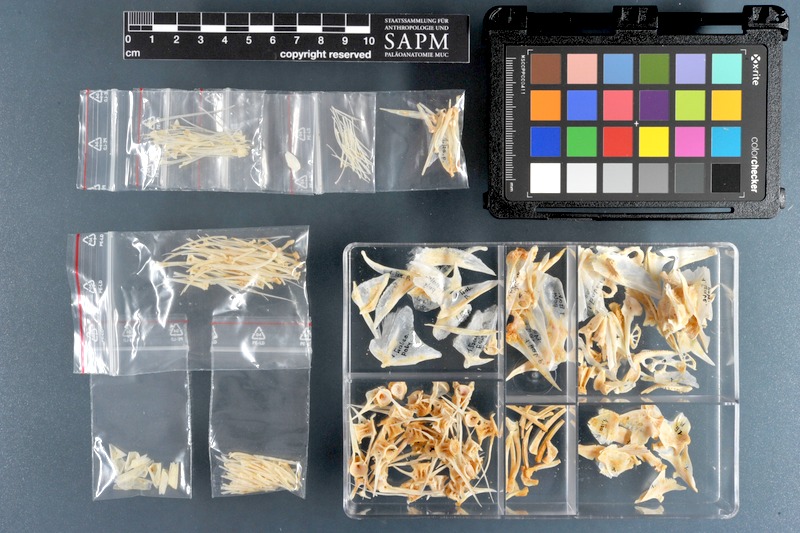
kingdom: Animalia
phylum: Chordata
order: Perciformes
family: Polynemidae
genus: Galeoides
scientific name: Galeoides decadactylus
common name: Lesser african threadfin
